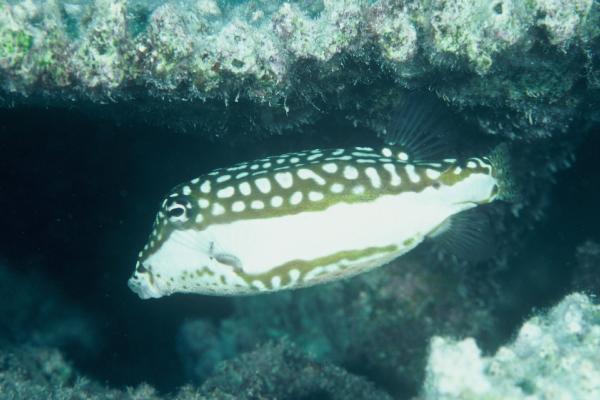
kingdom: Animalia
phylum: Chordata
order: Tetraodontiformes
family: Ostraciidae
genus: Ostracion
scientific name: Ostracion whitleyi
